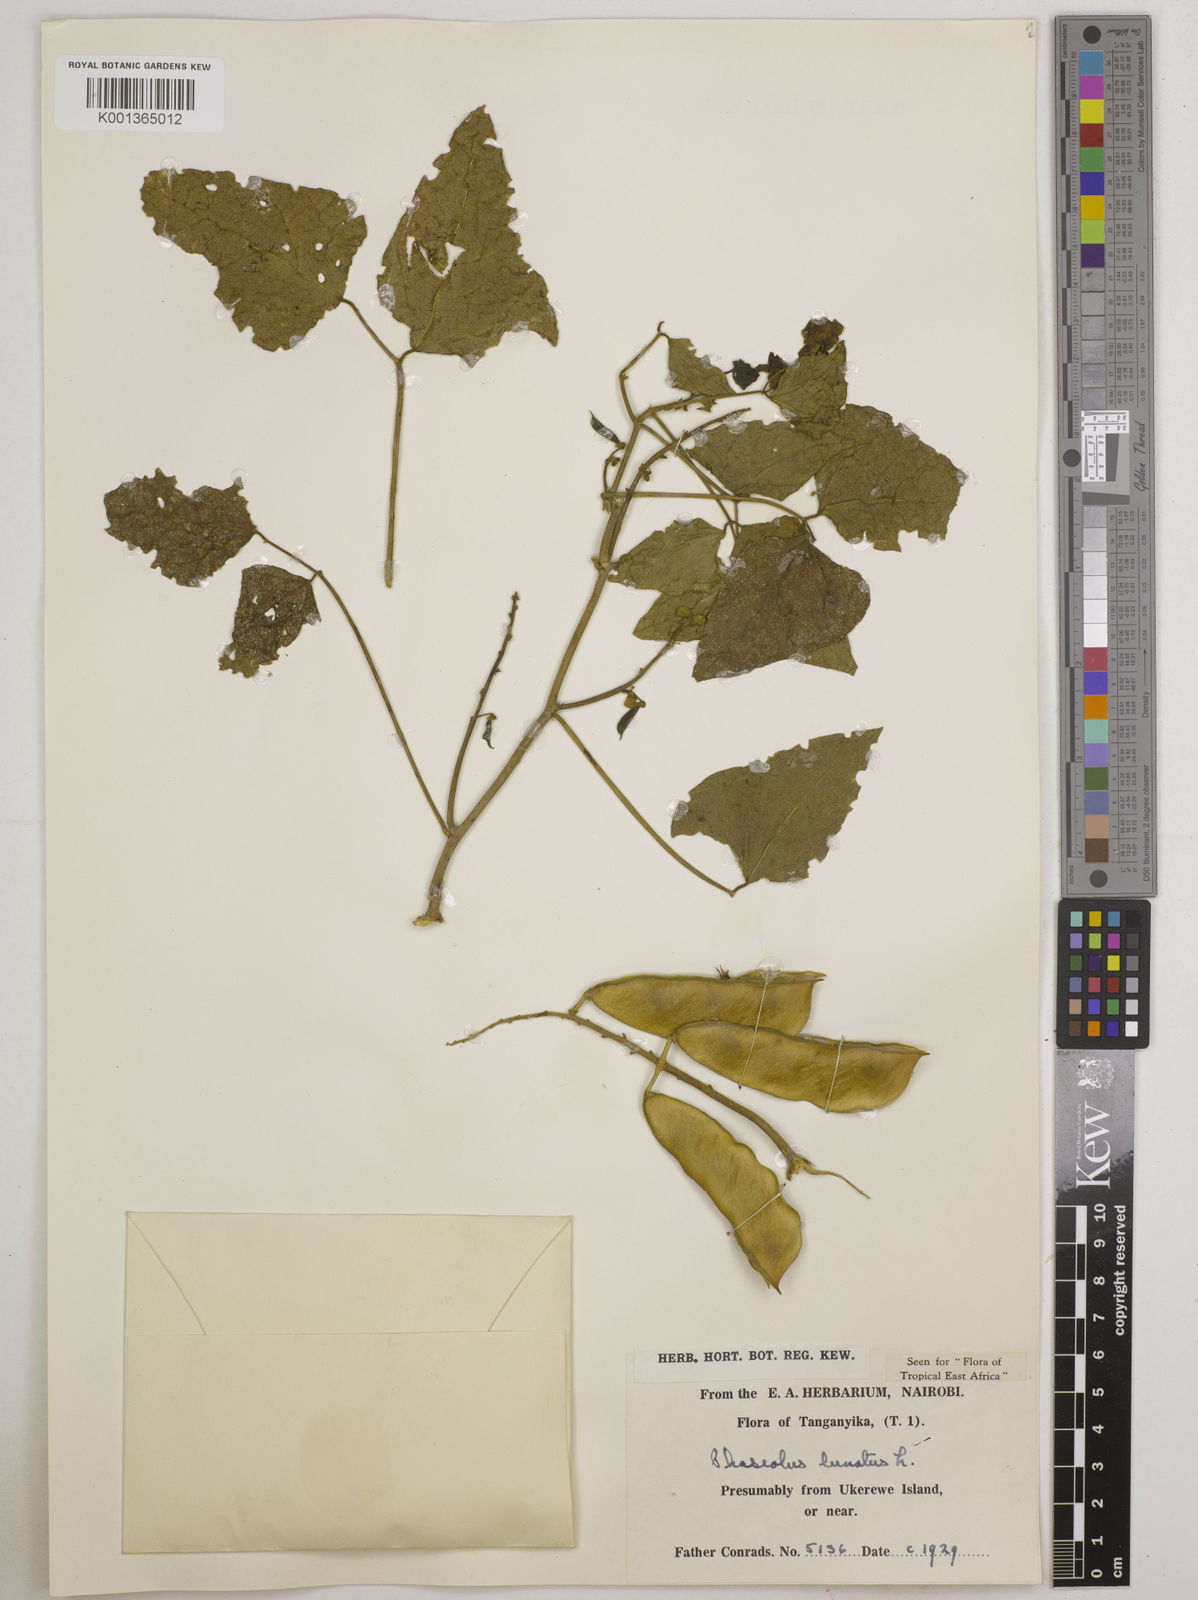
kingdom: Plantae
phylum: Tracheophyta
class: Magnoliopsida
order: Fabales
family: Fabaceae
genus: Phaseolus
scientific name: Phaseolus lunatus
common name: Sieva bean
